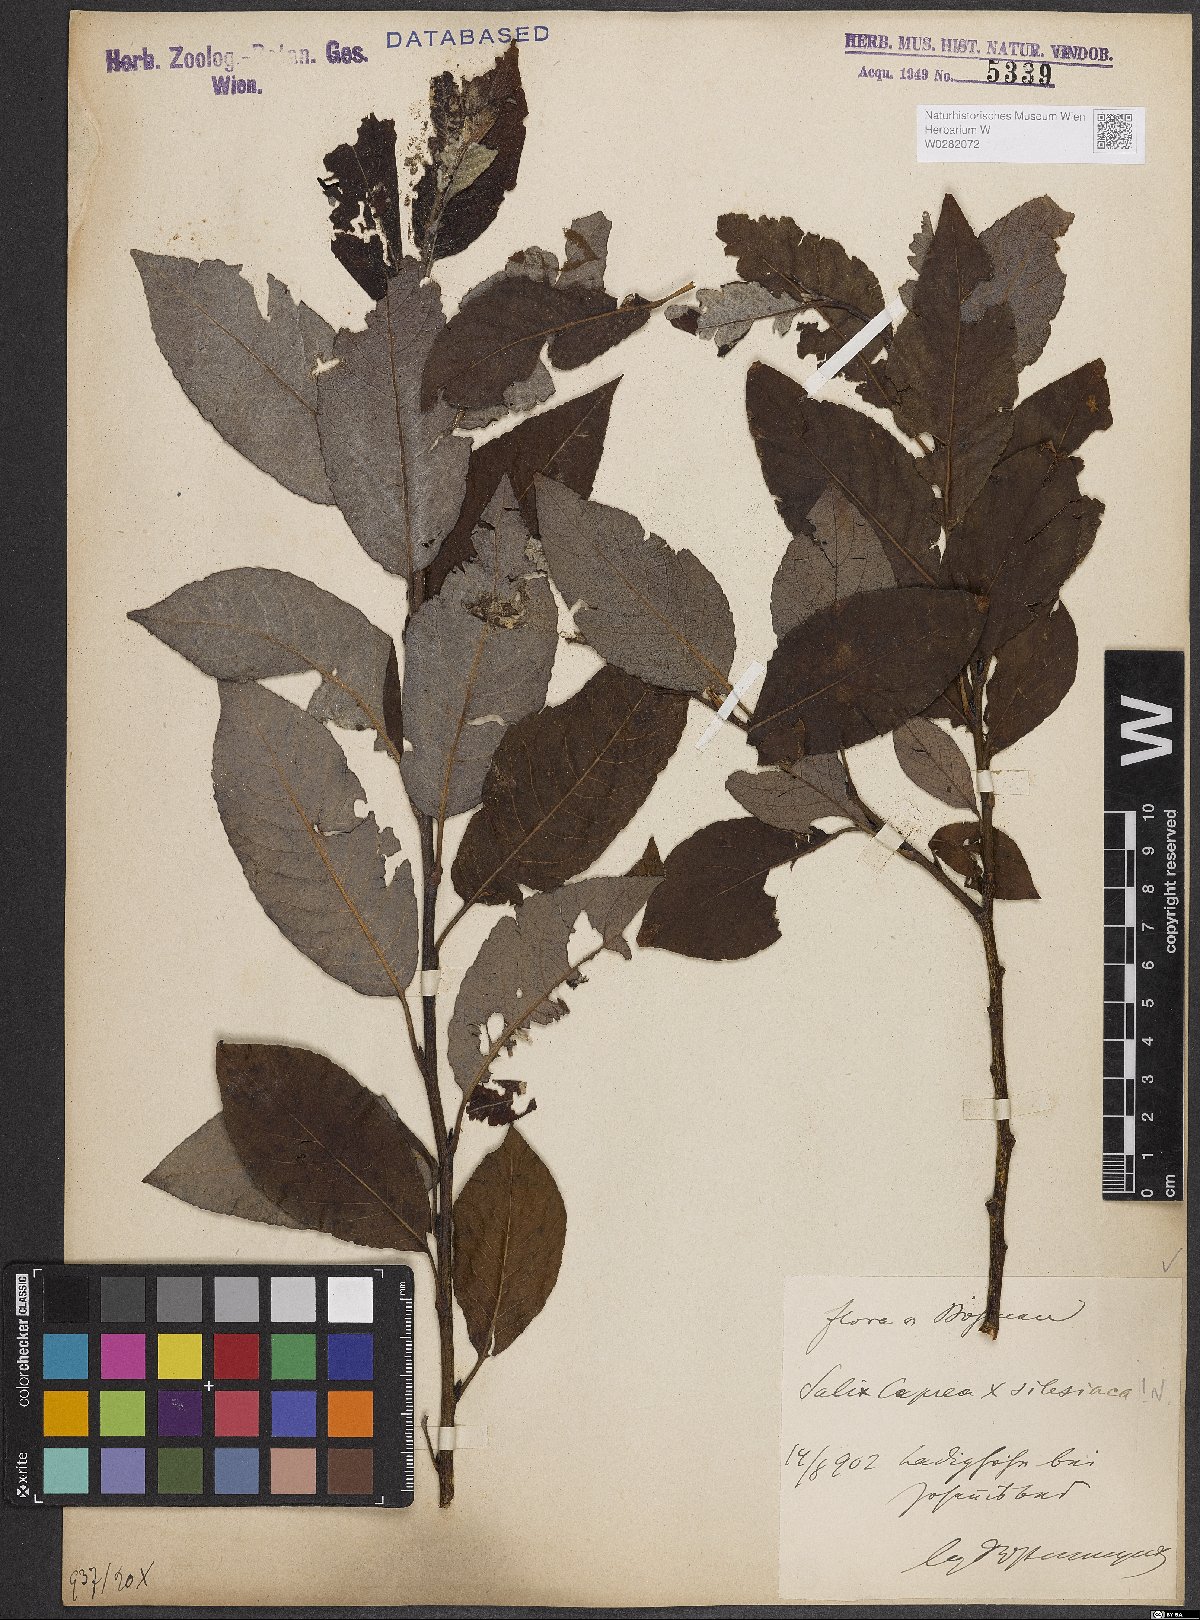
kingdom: Plantae
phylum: Tracheophyta
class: Magnoliopsida
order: Malpighiales
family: Salicaceae
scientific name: Salicaceae
